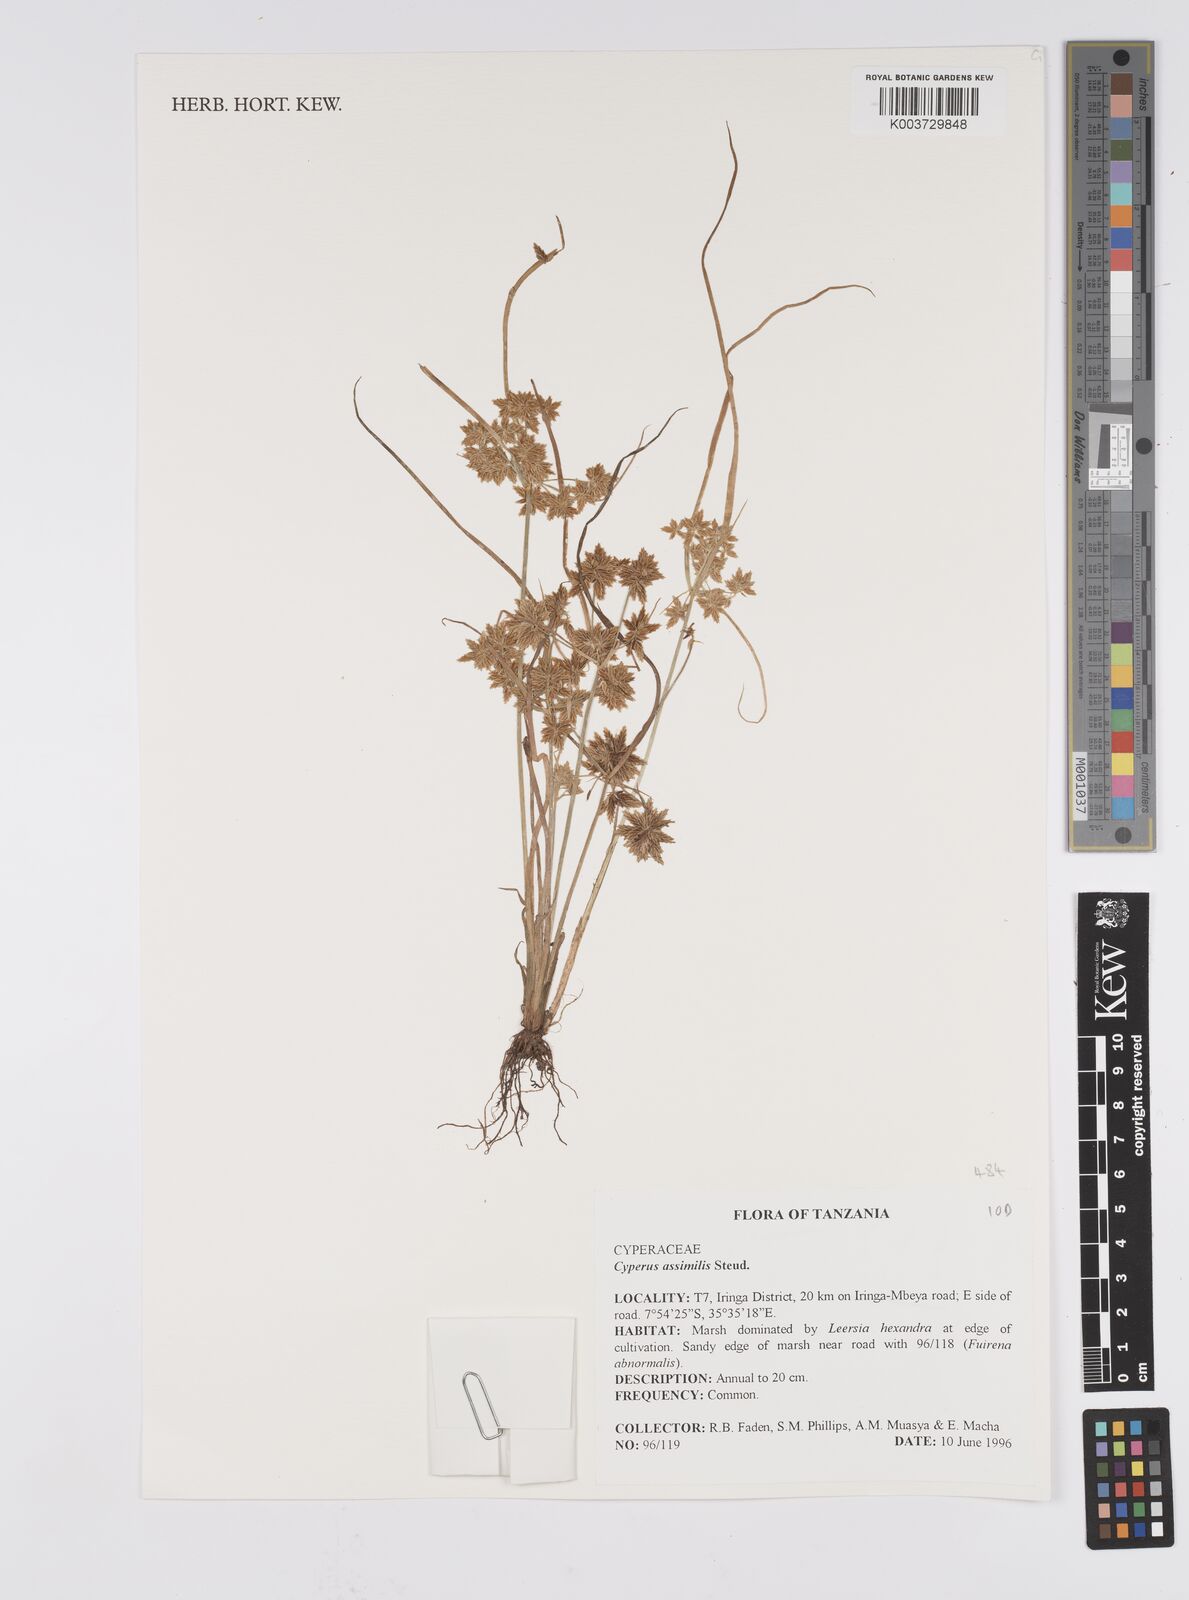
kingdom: Plantae
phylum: Tracheophyta
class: Liliopsida
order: Poales
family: Cyperaceae
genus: Cyperus
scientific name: Cyperus assimilis
